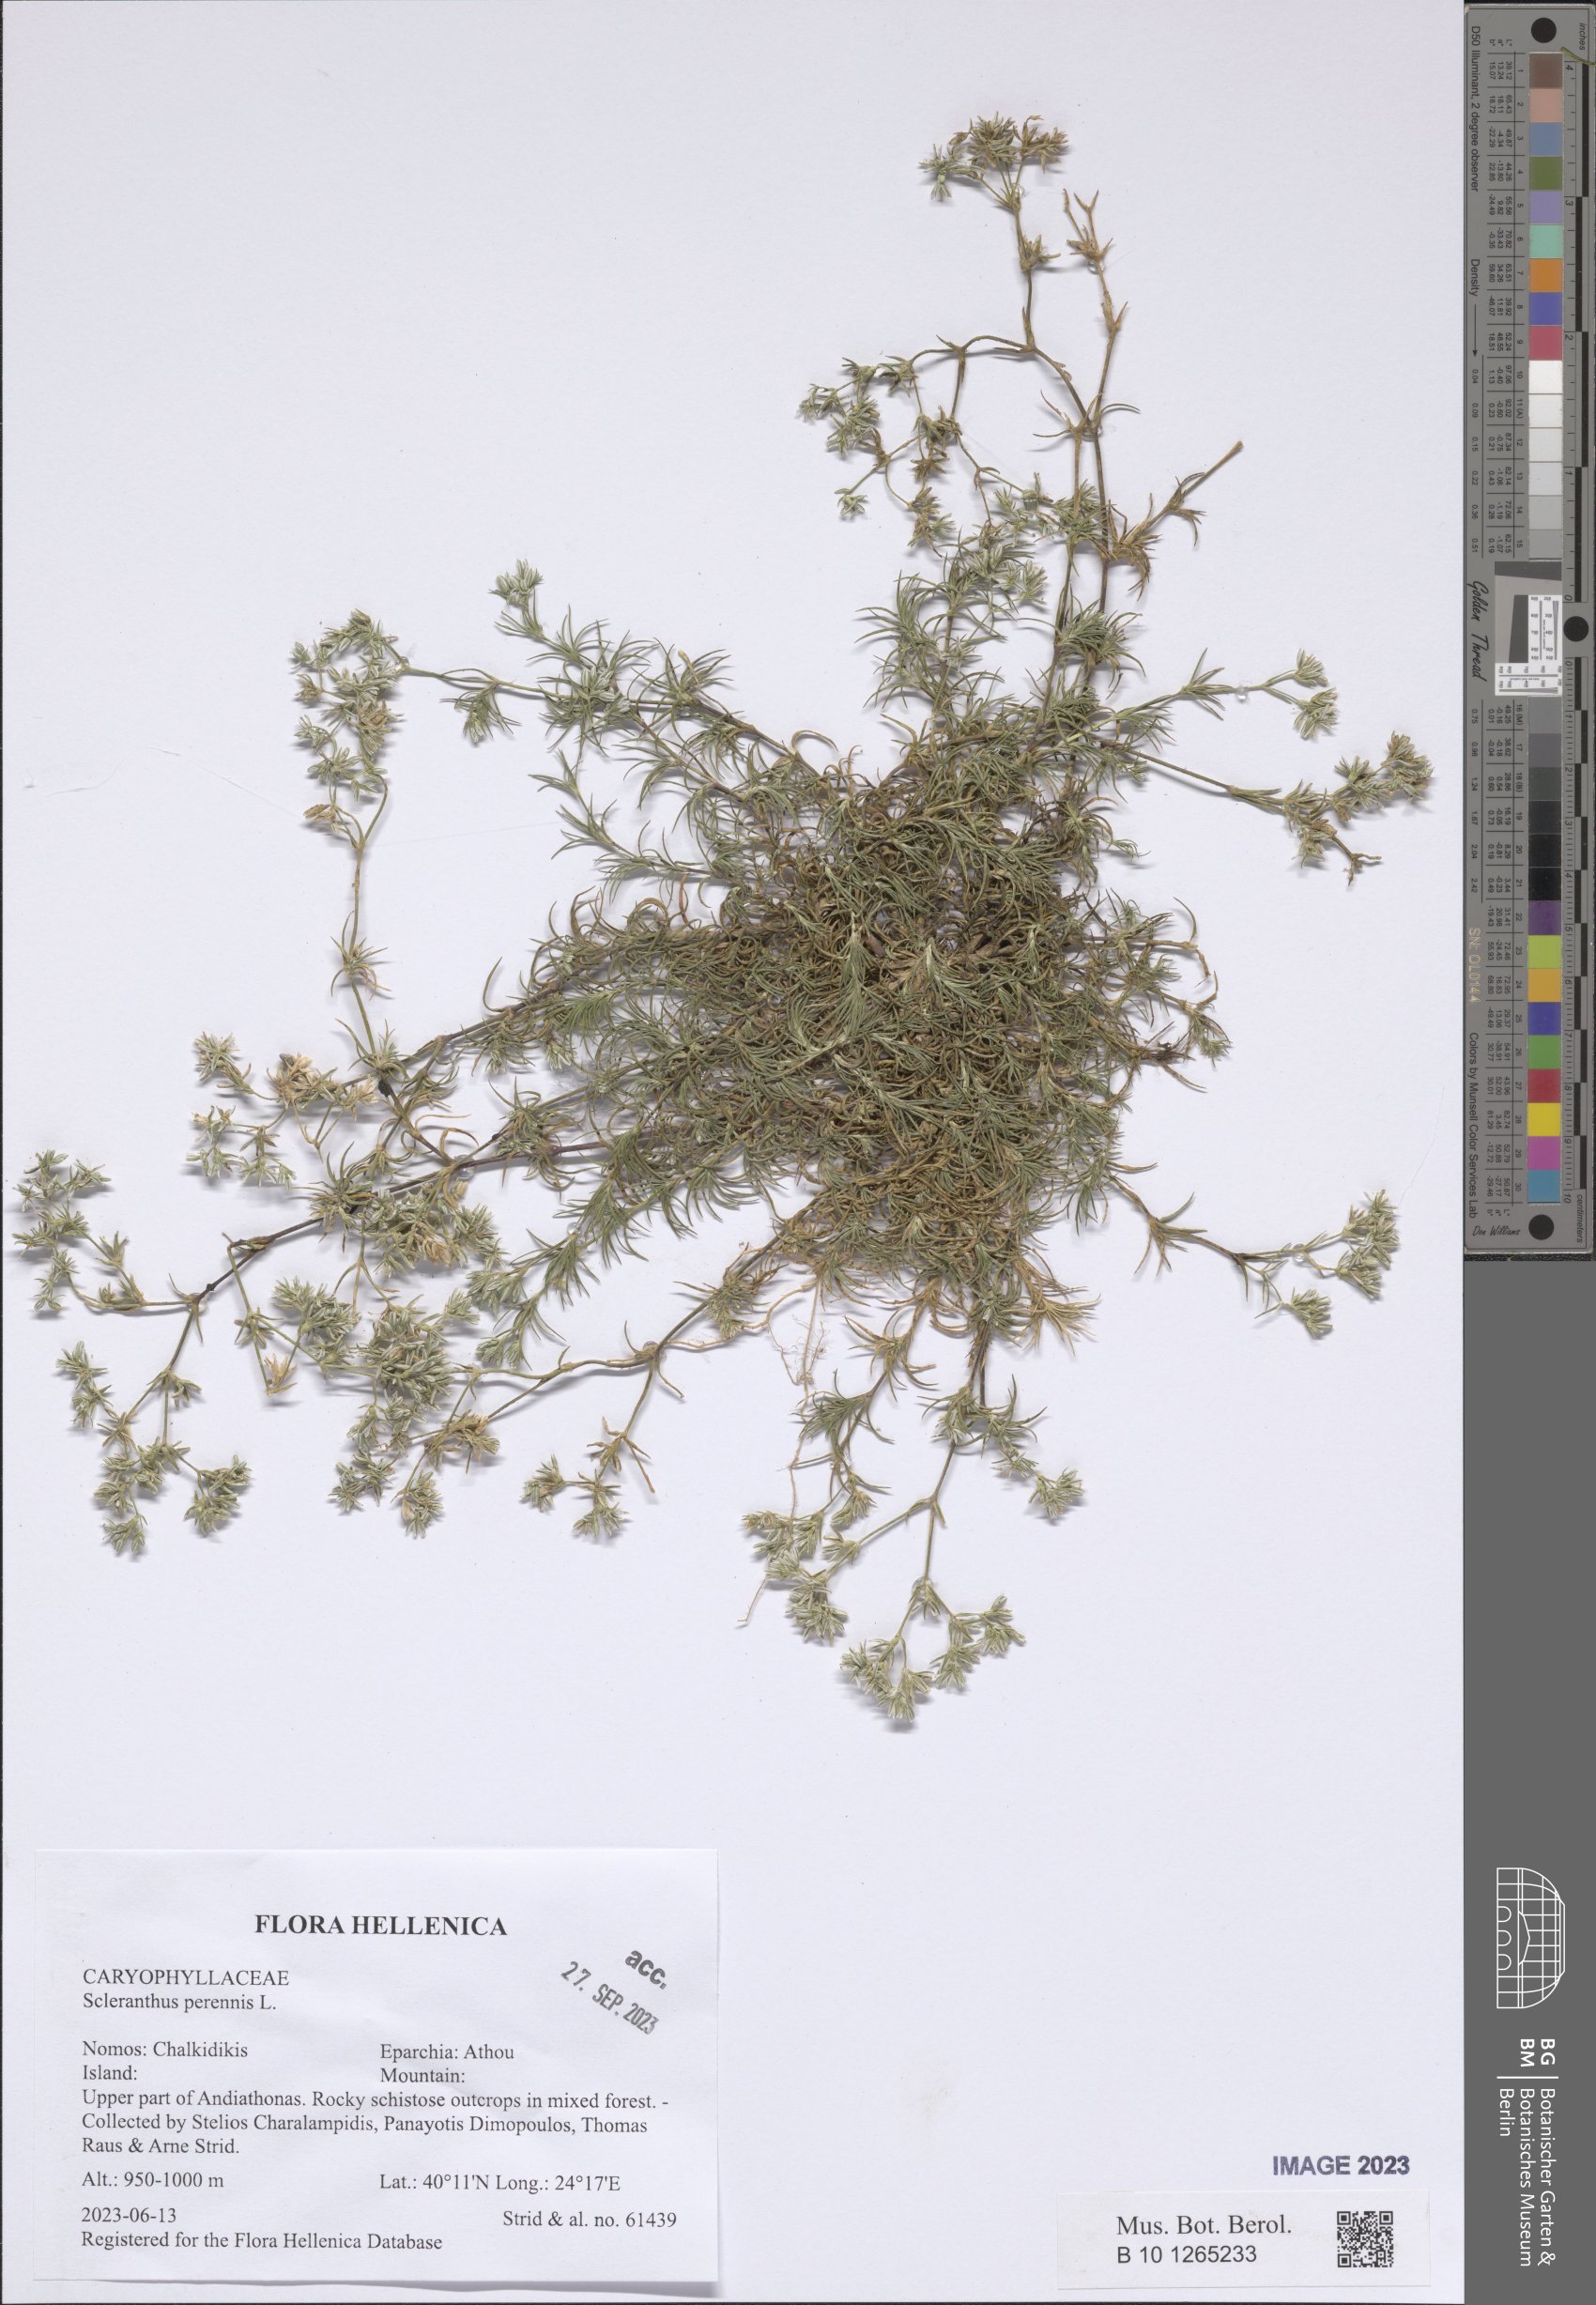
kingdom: Plantae
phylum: Tracheophyta
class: Magnoliopsida
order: Caryophyllales
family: Caryophyllaceae
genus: Scleranthus
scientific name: Scleranthus perennis
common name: Perennial knawel
